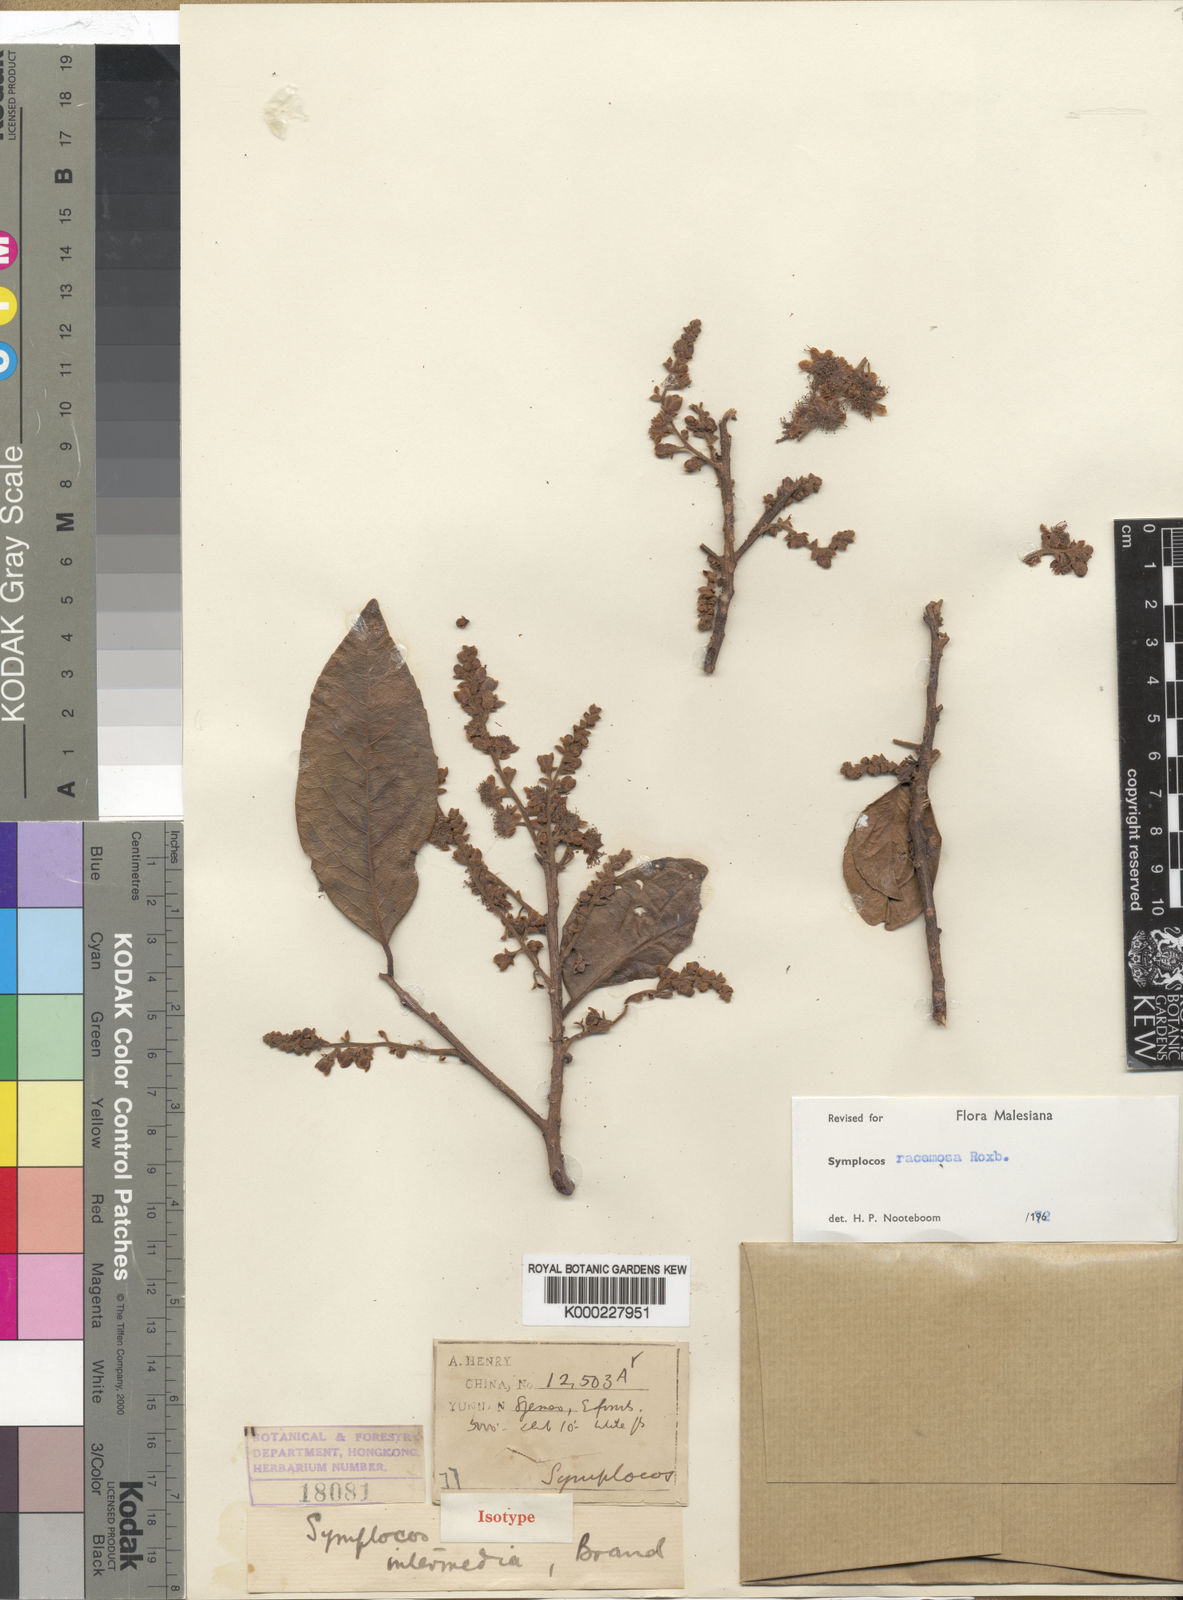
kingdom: Plantae
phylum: Tracheophyta
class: Magnoliopsida
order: Ericales
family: Symplocaceae
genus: Symplocos
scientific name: Symplocos racemosa
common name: Lodhtree
